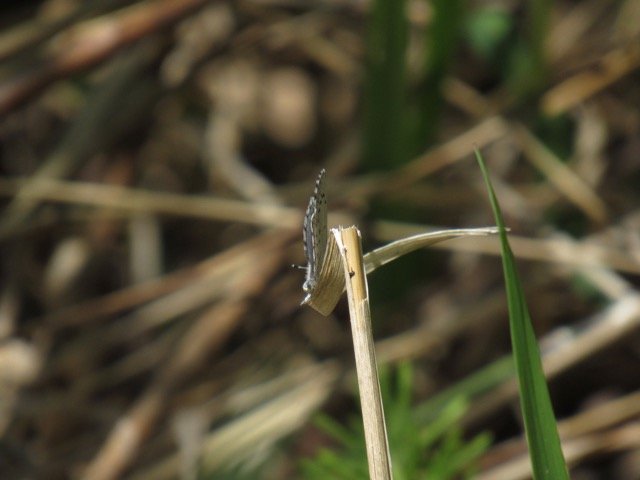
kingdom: Animalia
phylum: Arthropoda
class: Insecta
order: Lepidoptera
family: Lycaenidae
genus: Celastrina
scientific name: Celastrina lucia
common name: Northern Spring Azure
